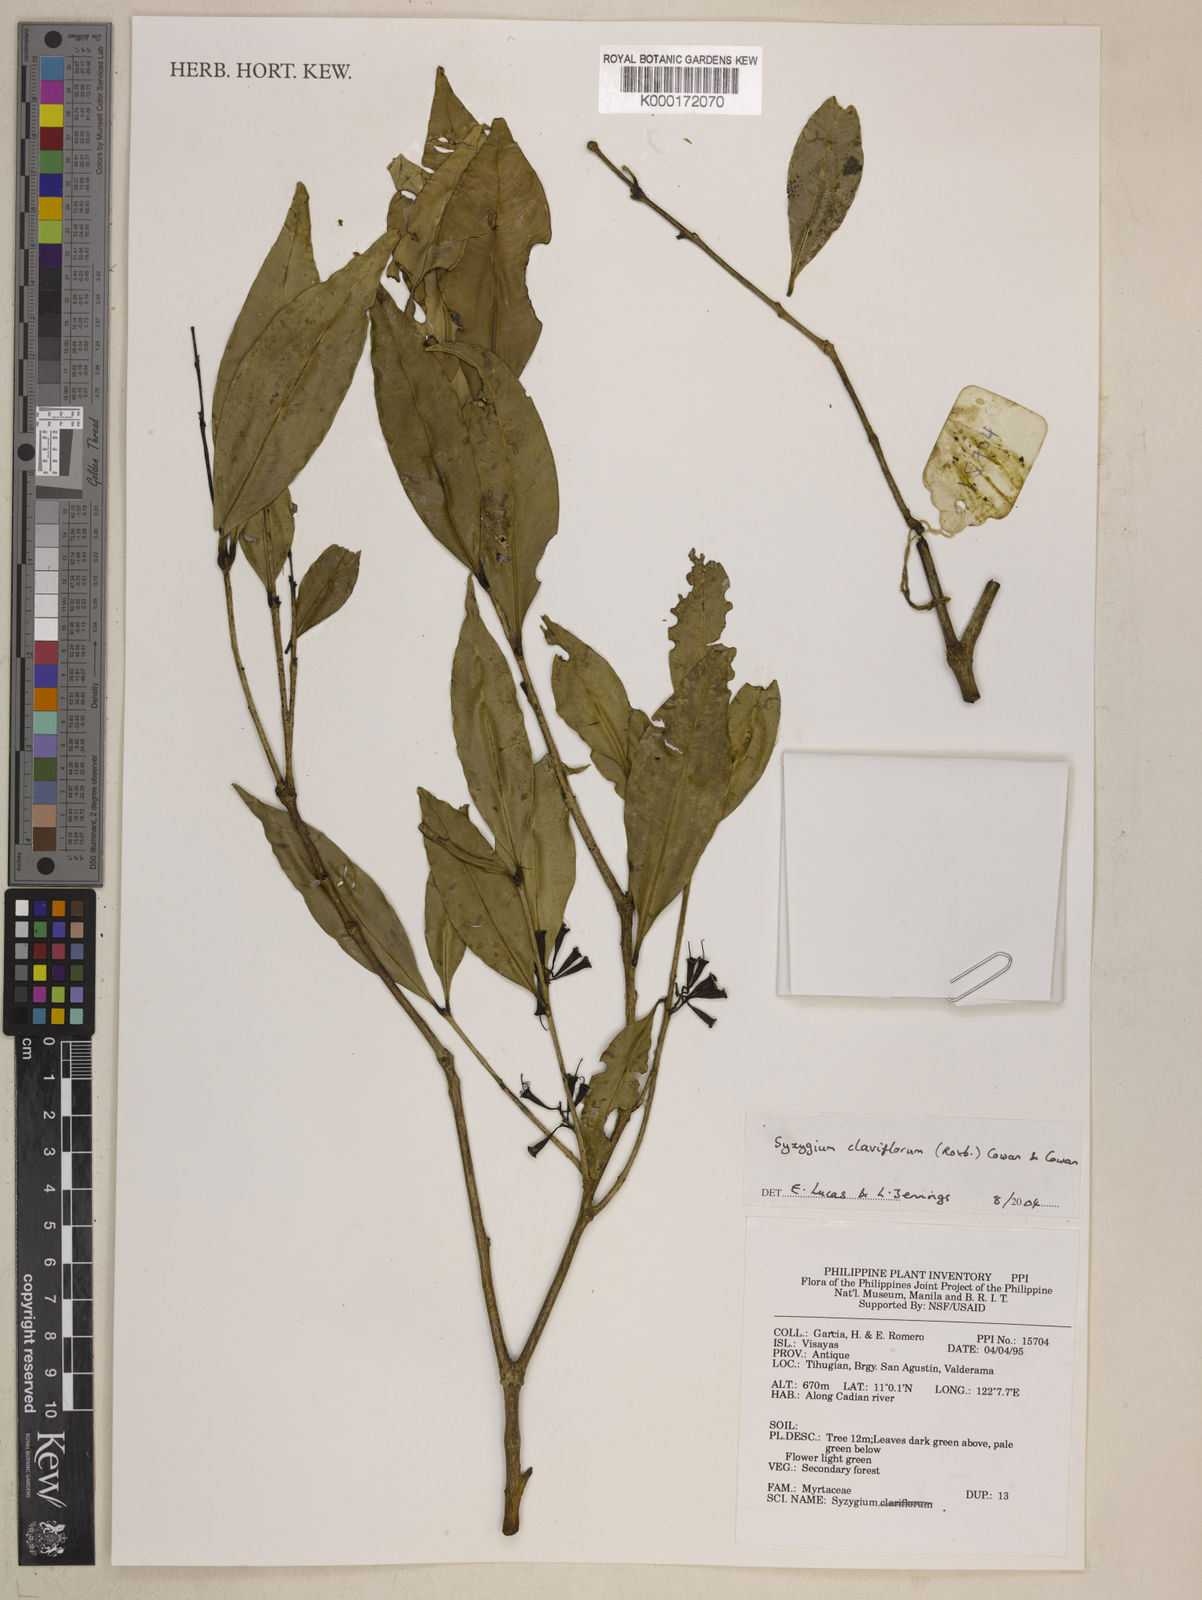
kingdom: Plantae
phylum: Tracheophyta
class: Magnoliopsida
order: Myrtales
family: Myrtaceae
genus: Syzygium
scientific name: Syzygium claviflorum
